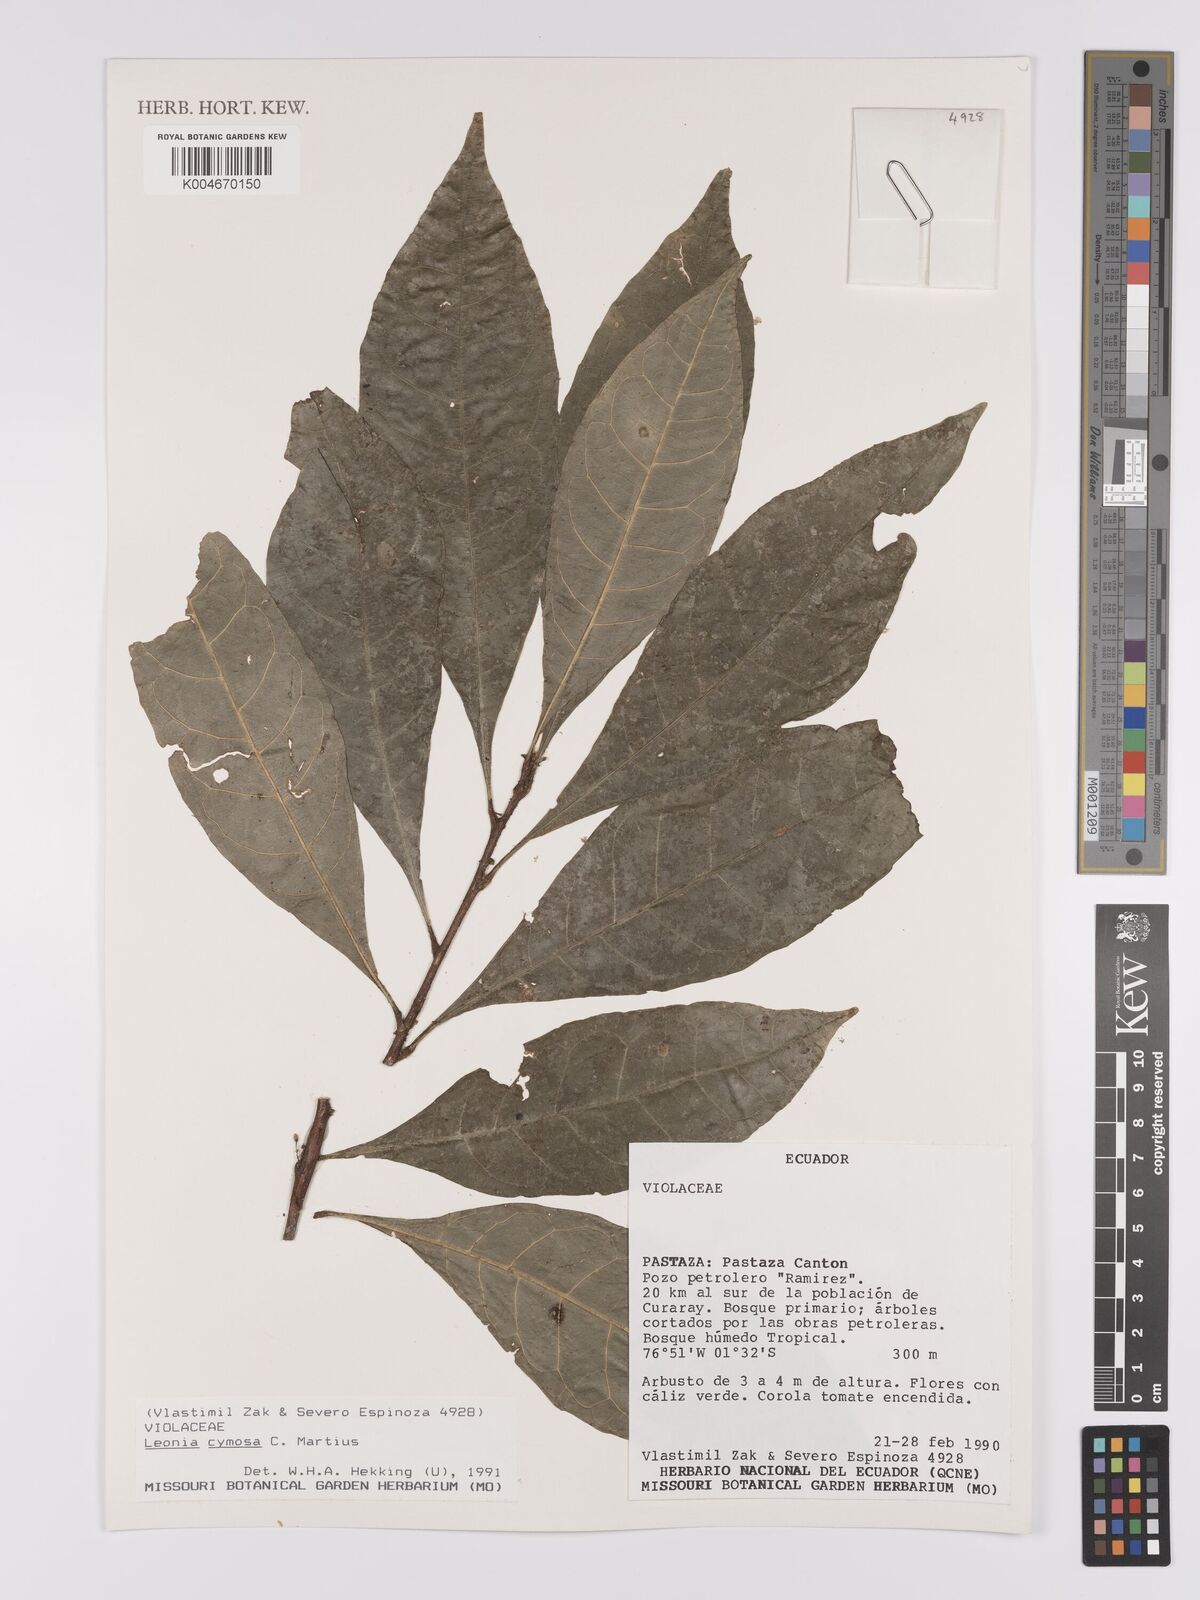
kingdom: Plantae
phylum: Tracheophyta
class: Magnoliopsida
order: Malpighiales
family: Violaceae
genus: Leonia
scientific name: Leonia cymosa
